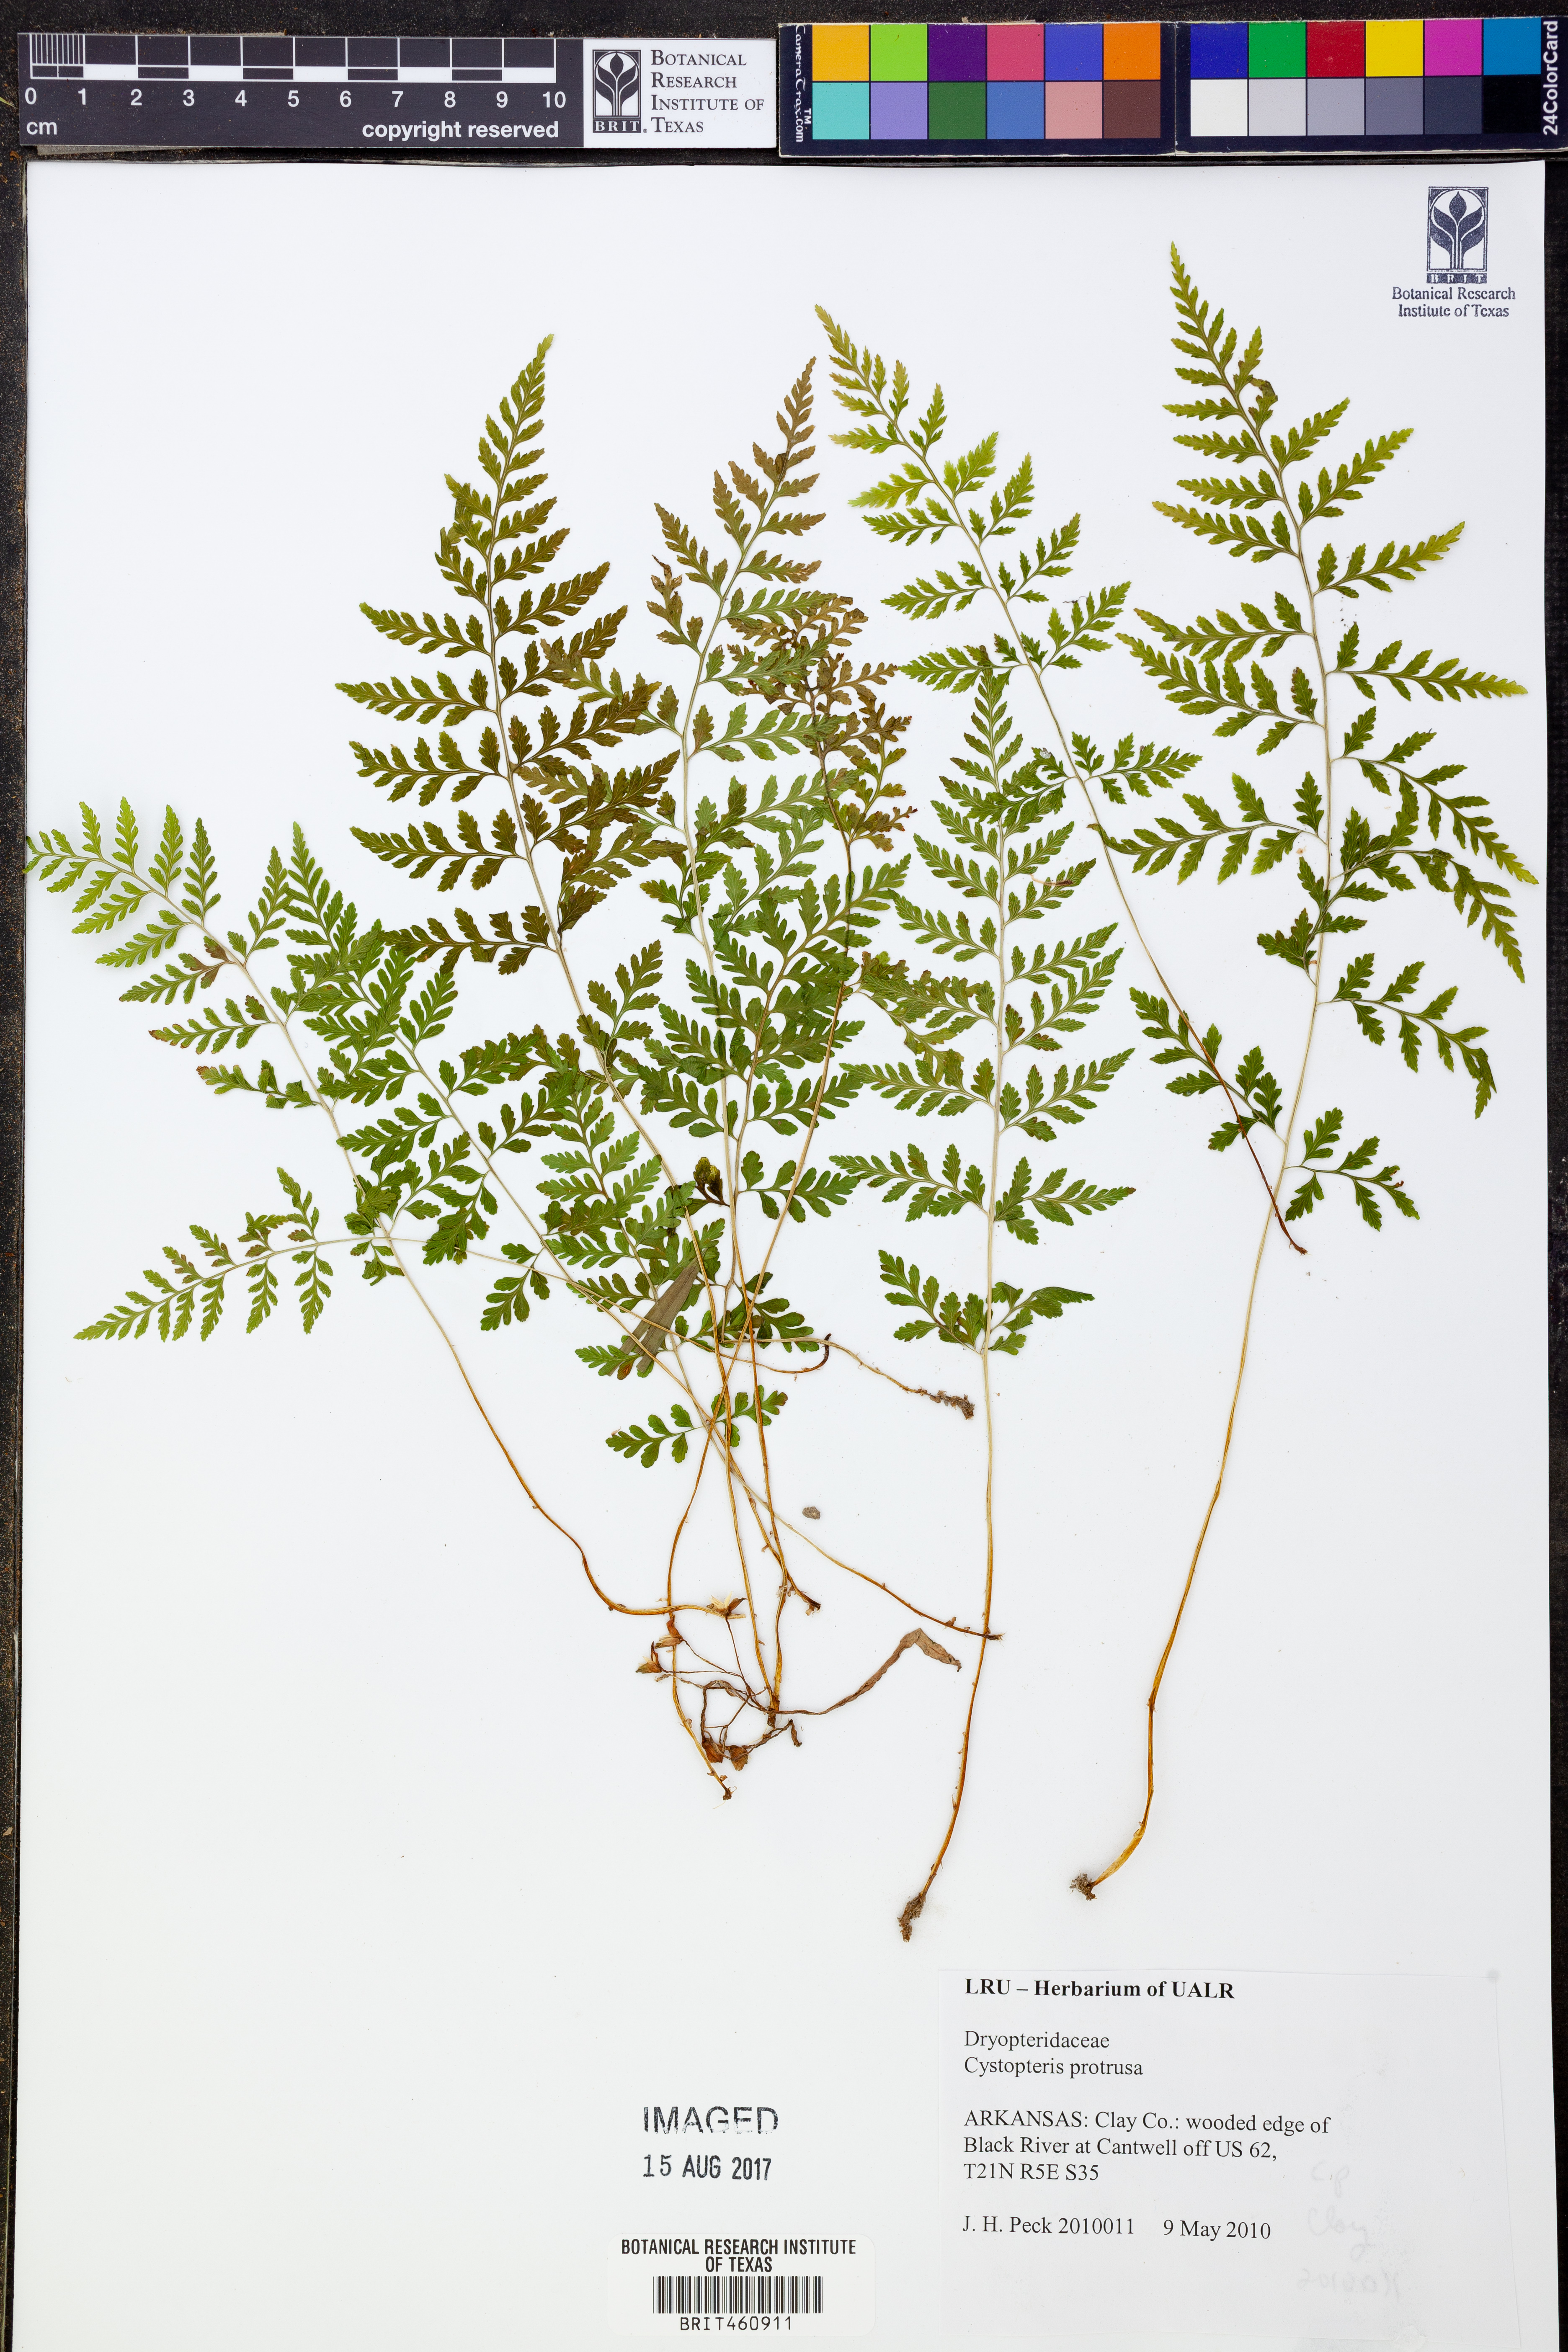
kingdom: Plantae
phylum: Tracheophyta
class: Polypodiopsida
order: Polypodiales
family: Cystopteridaceae
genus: Cystopteris
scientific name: Cystopteris protrusa
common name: Lowland brittle fern
